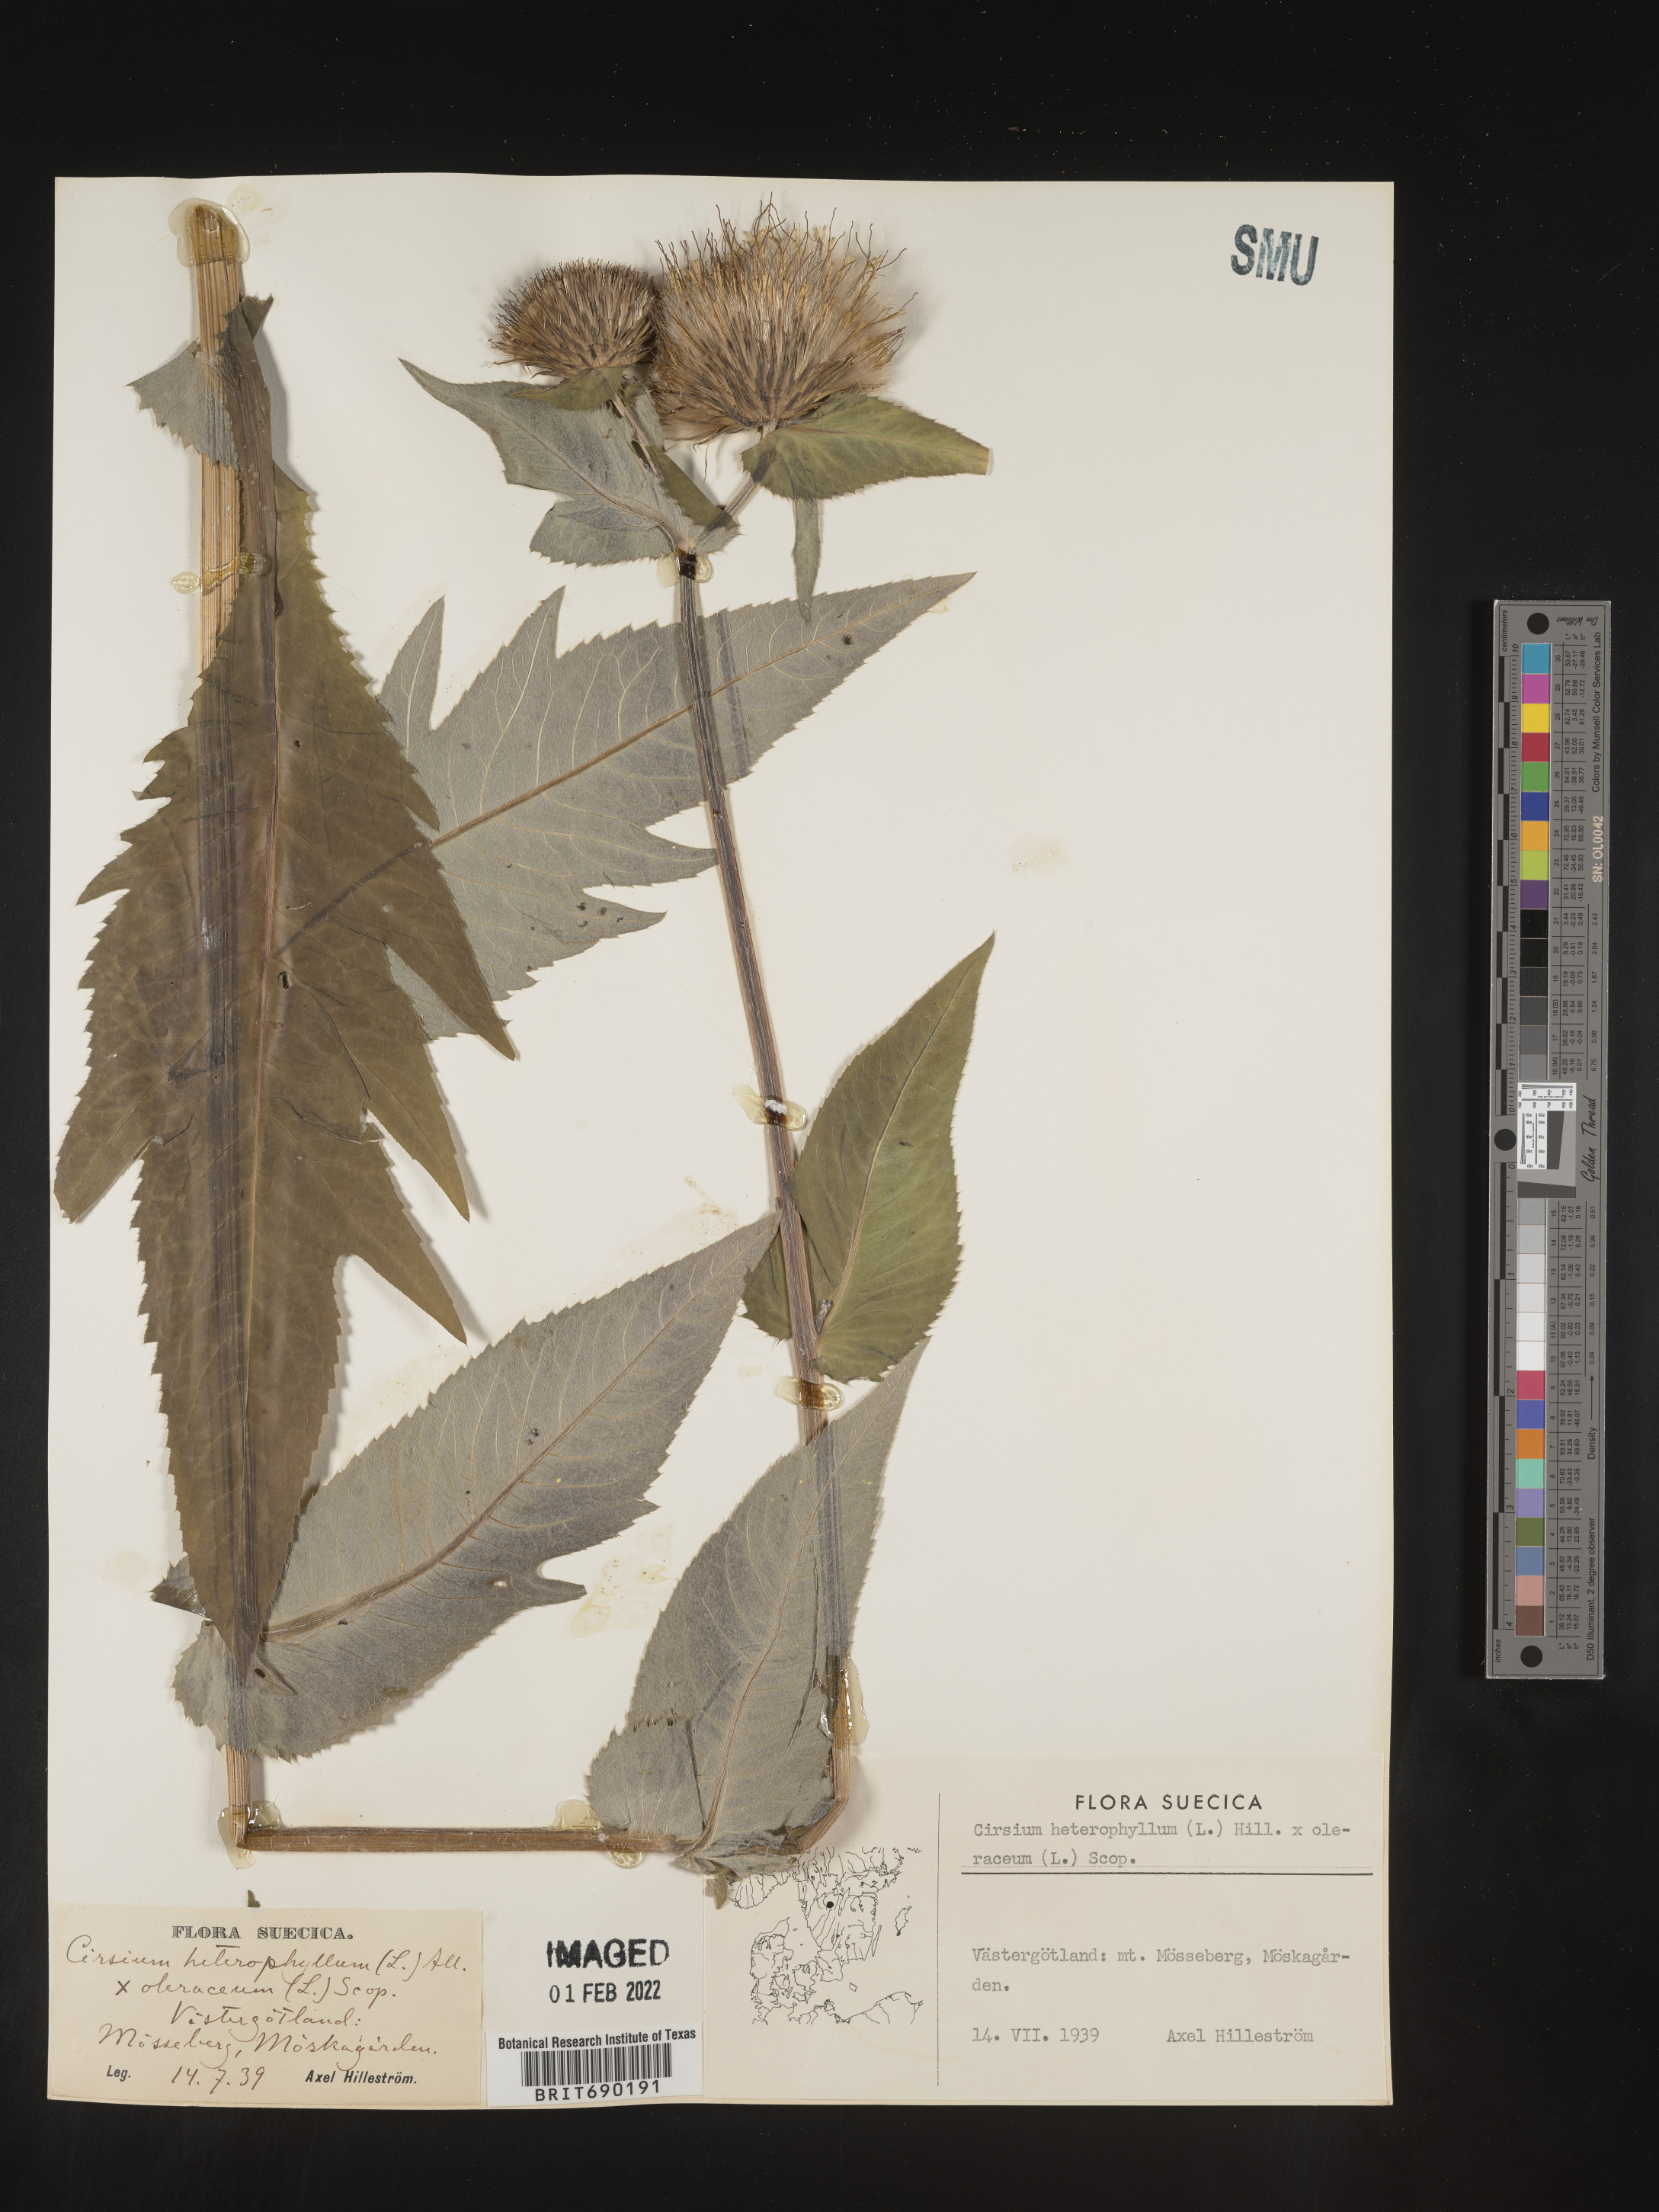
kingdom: Plantae
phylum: Tracheophyta
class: Magnoliopsida
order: Asterales
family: Asteraceae
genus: Cirsium
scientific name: Cirsium
